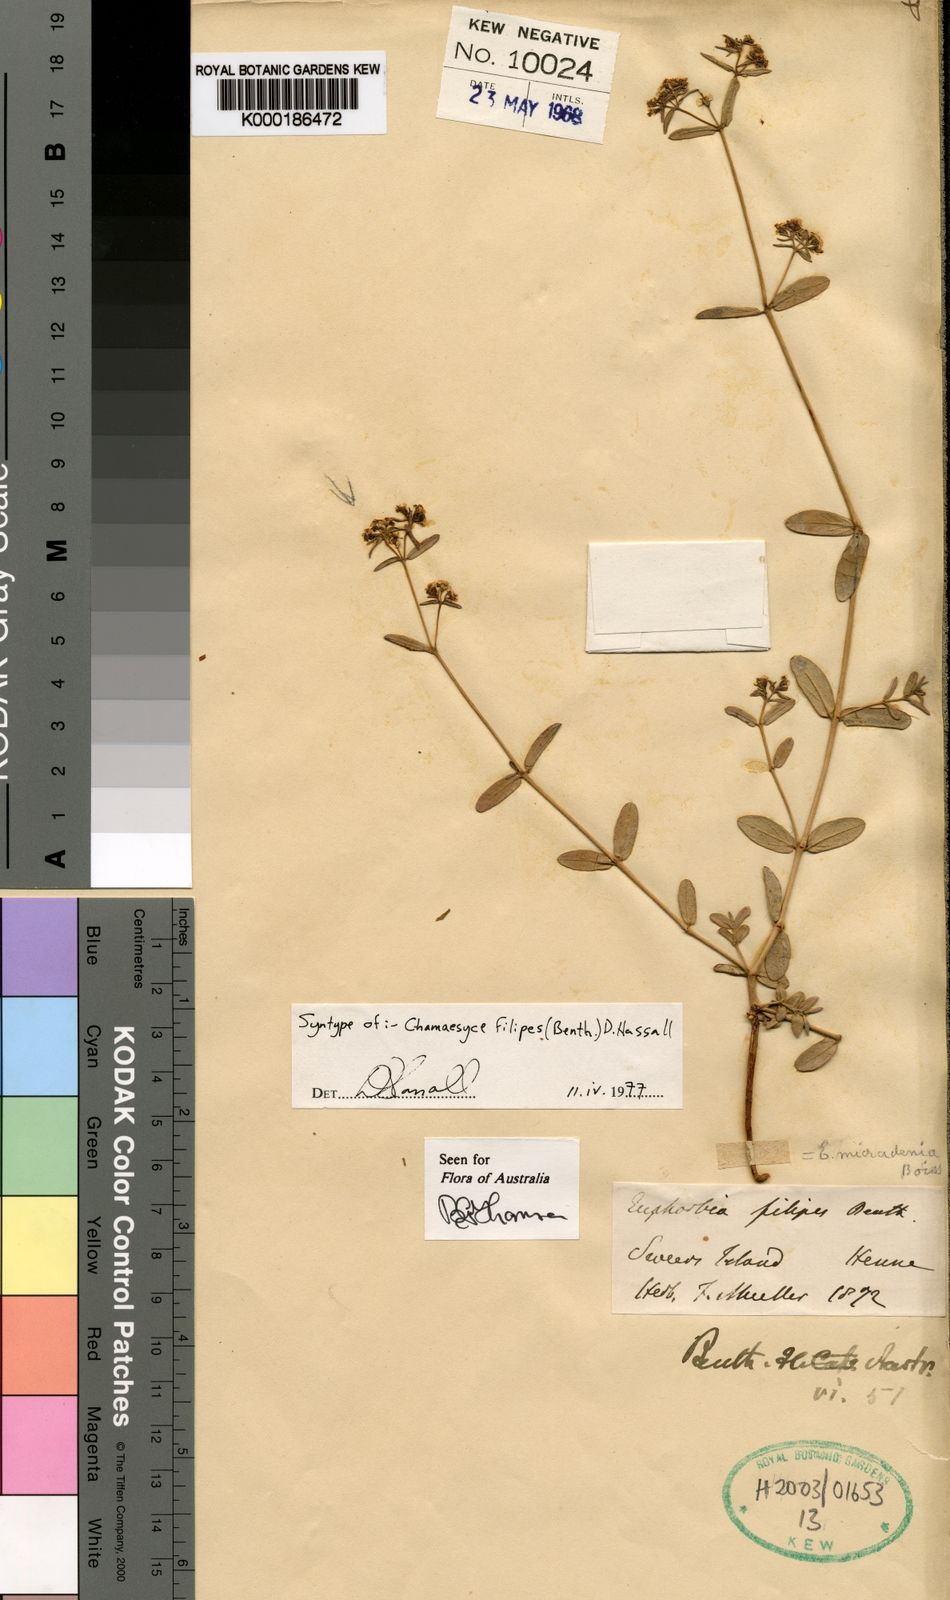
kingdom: Plantae
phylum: Tracheophyta
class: Magnoliopsida
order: Malpighiales
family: Euphorbiaceae
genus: Euphorbia
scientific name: Euphorbia mitchelliana
